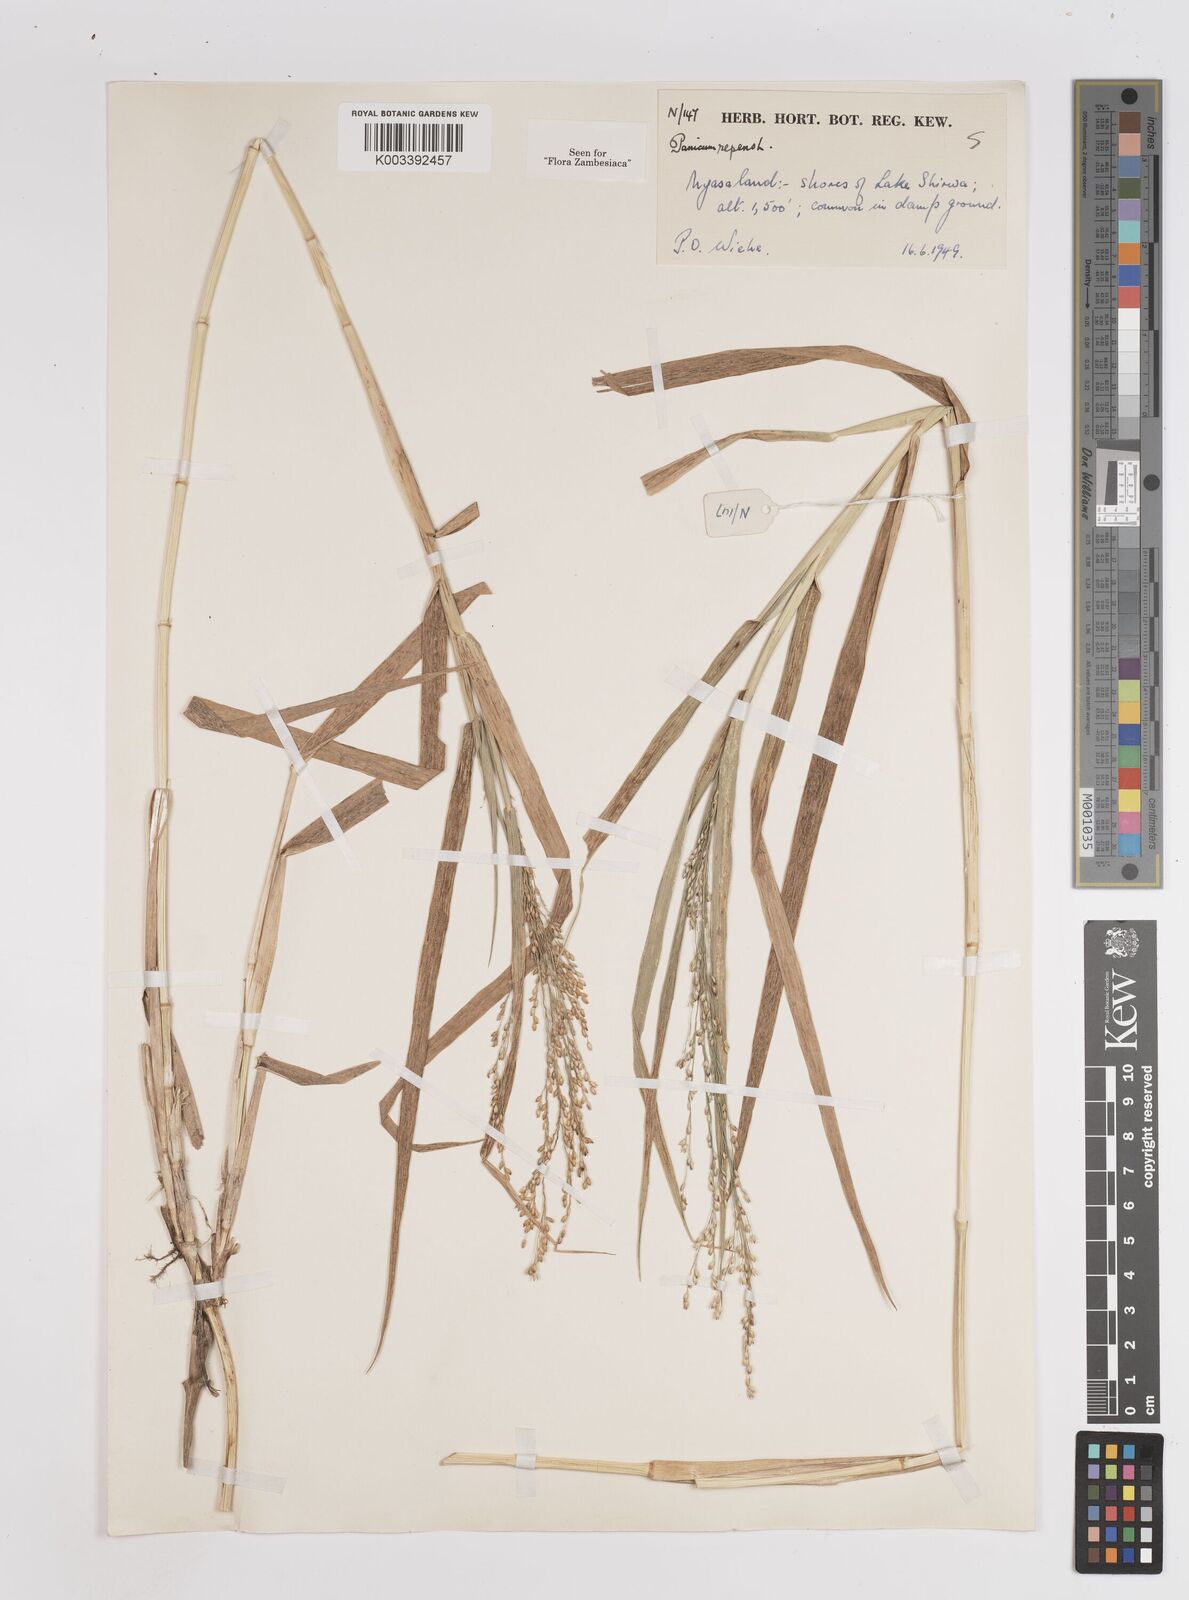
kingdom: Plantae
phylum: Tracheophyta
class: Liliopsida
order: Poales
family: Poaceae
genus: Panicum
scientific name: Panicum repens
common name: Torpedo grass
